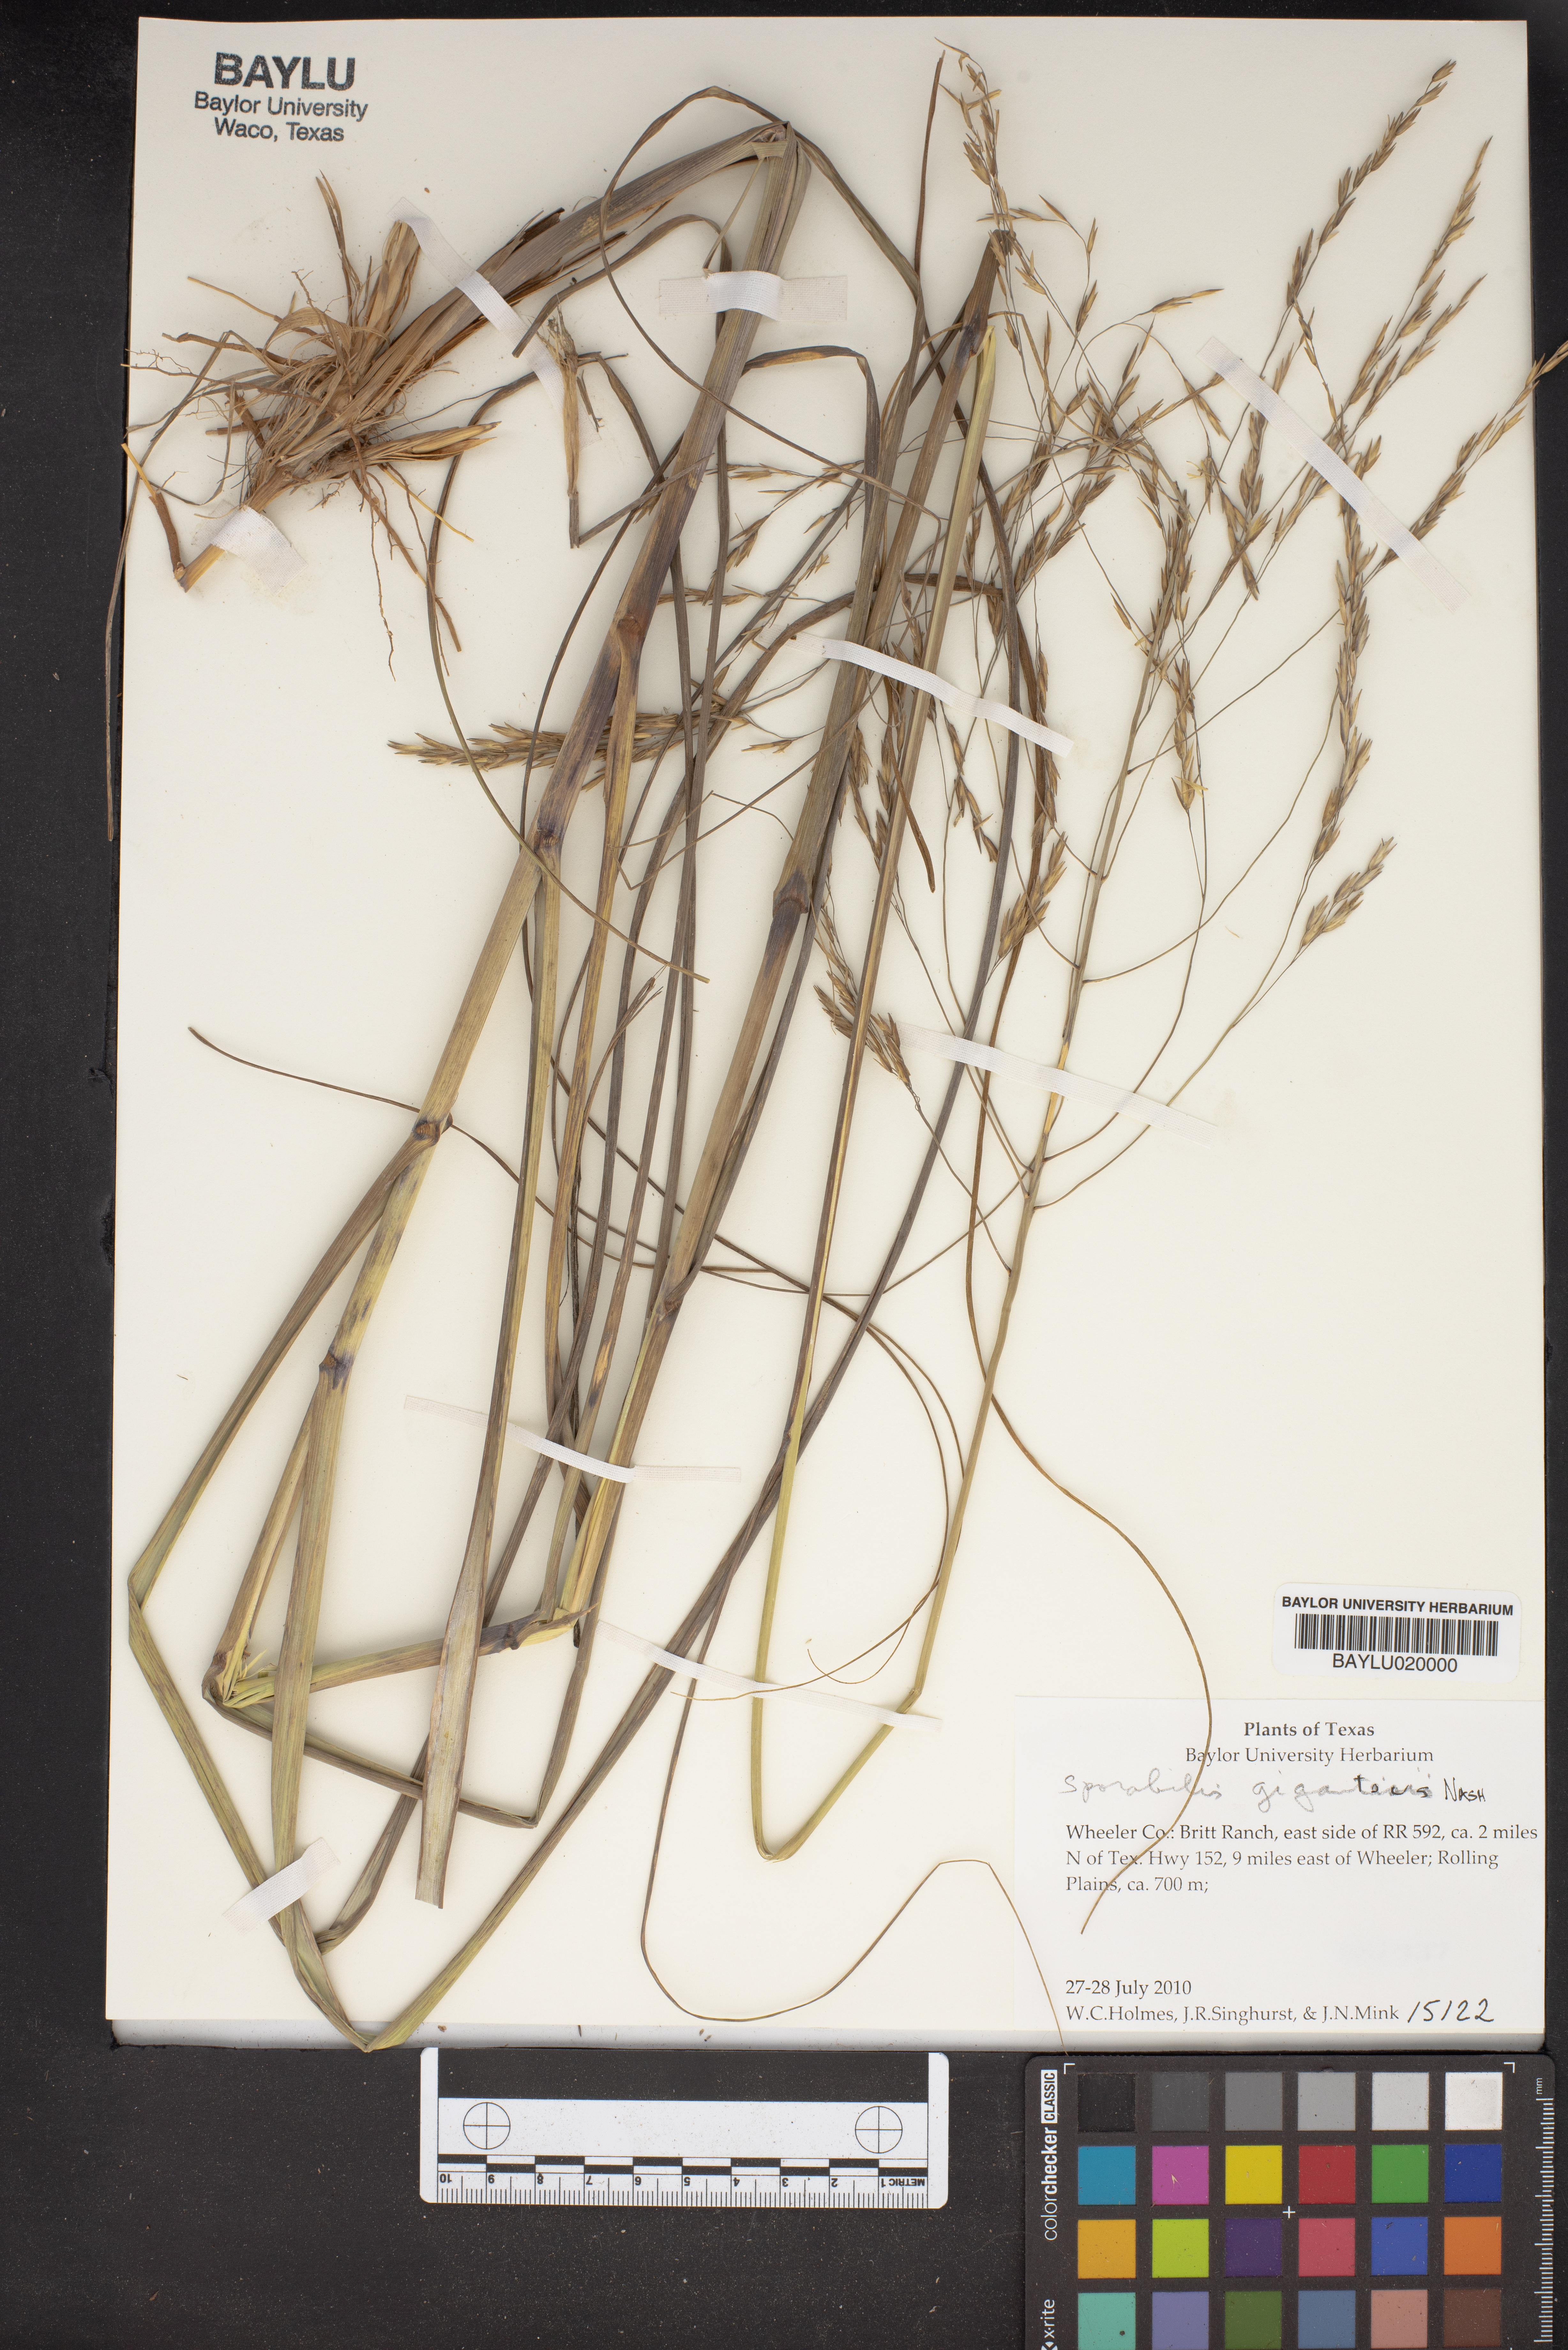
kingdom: Plantae
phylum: Tracheophyta
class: Liliopsida
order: Poales
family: Poaceae
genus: Sporobolus
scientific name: Sporobolus giganteus
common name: Giant dropseed
